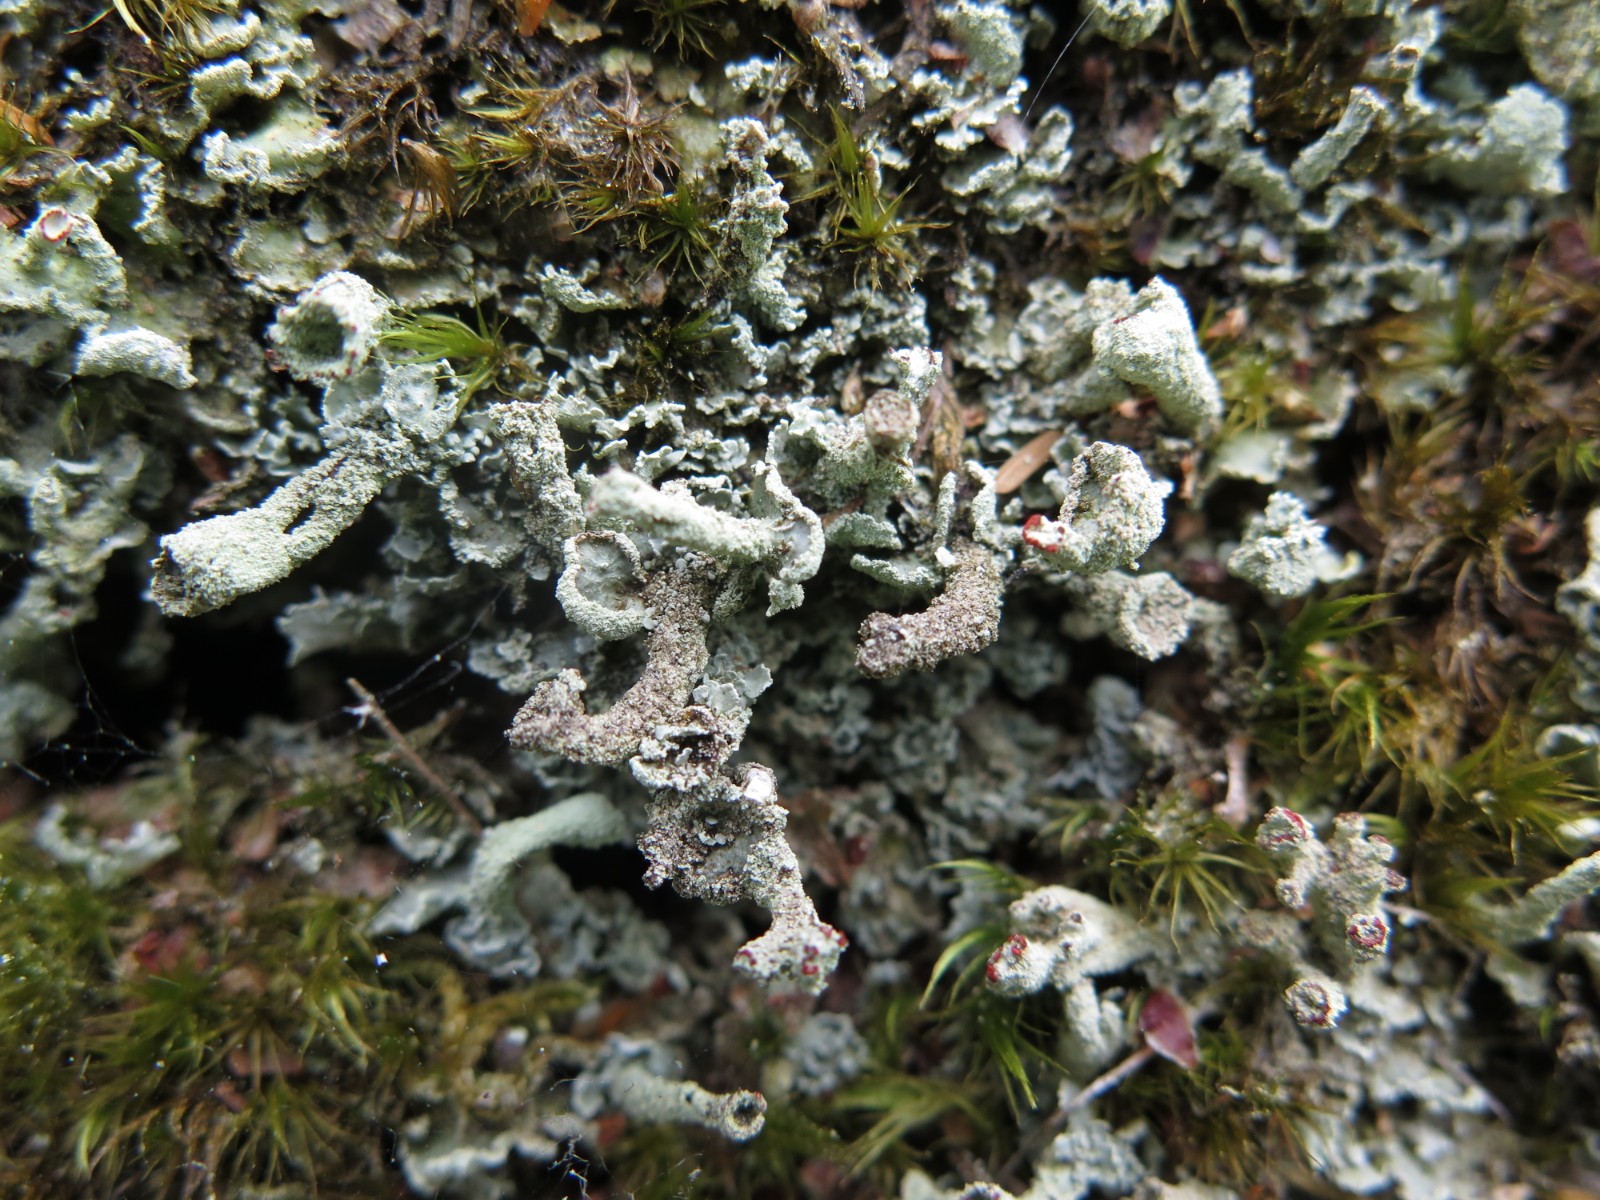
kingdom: Fungi
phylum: Ascomycota
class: Lecanoromycetes
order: Lecanorales
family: Cladoniaceae
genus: Cladonia
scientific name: Cladonia digitata
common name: finger-bægerlav
